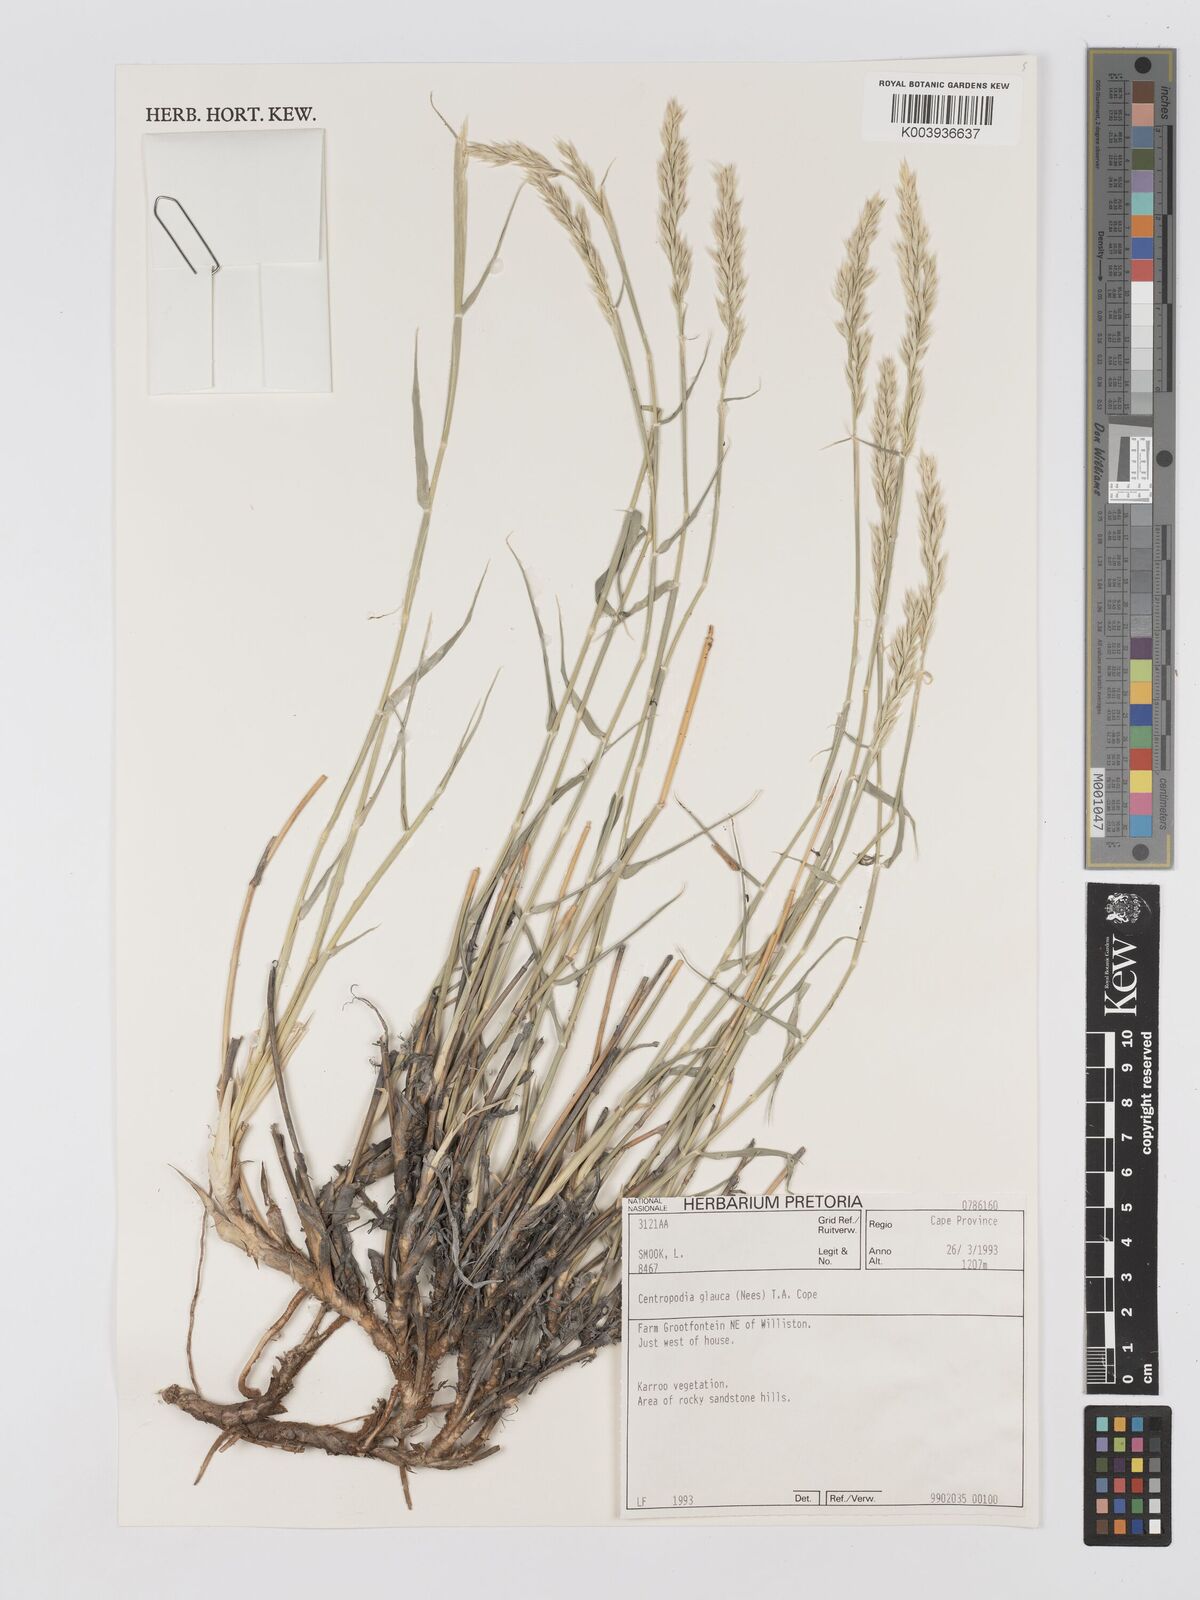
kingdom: Plantae
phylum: Tracheophyta
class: Liliopsida
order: Poales
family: Poaceae
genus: Centropodia
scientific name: Centropodia glauca
